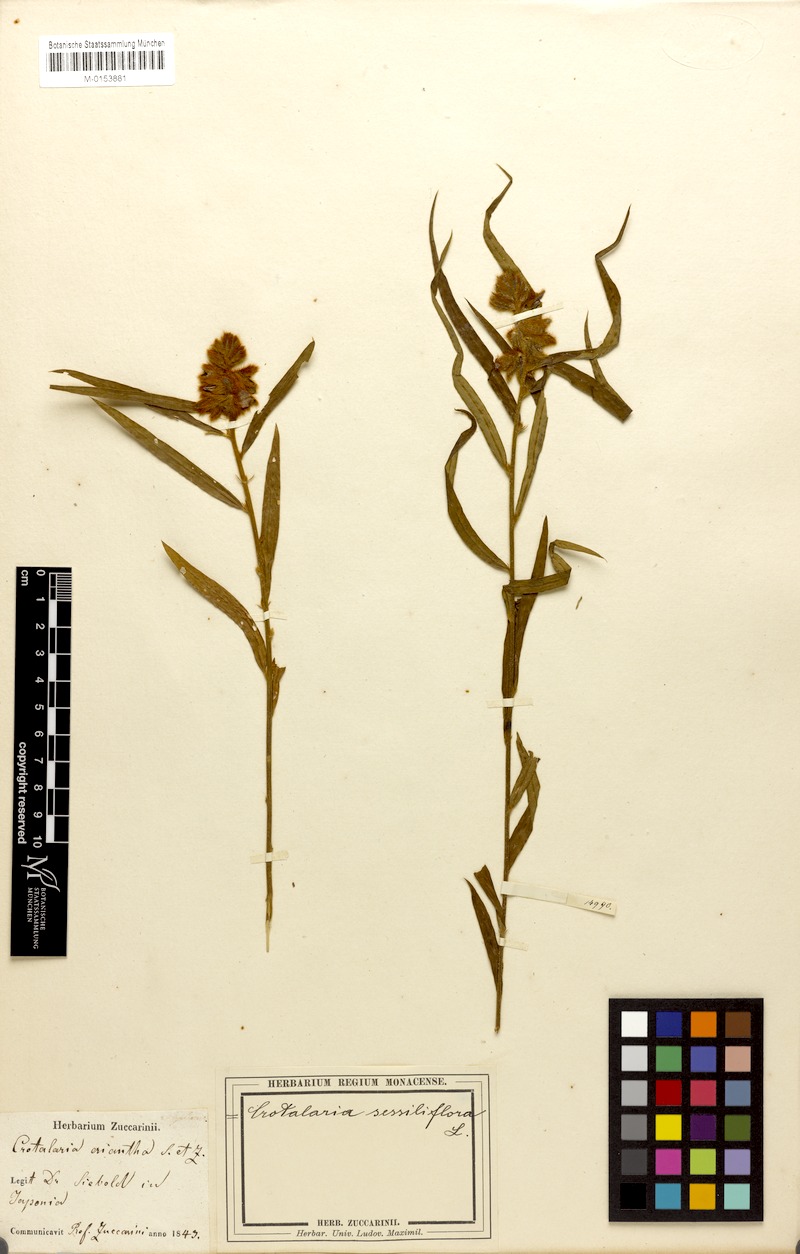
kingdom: Plantae
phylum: Tracheophyta
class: Magnoliopsida
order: Fabales
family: Fabaceae
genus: Crotalaria
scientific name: Crotalaria sessiliflora
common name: Rattlebox
